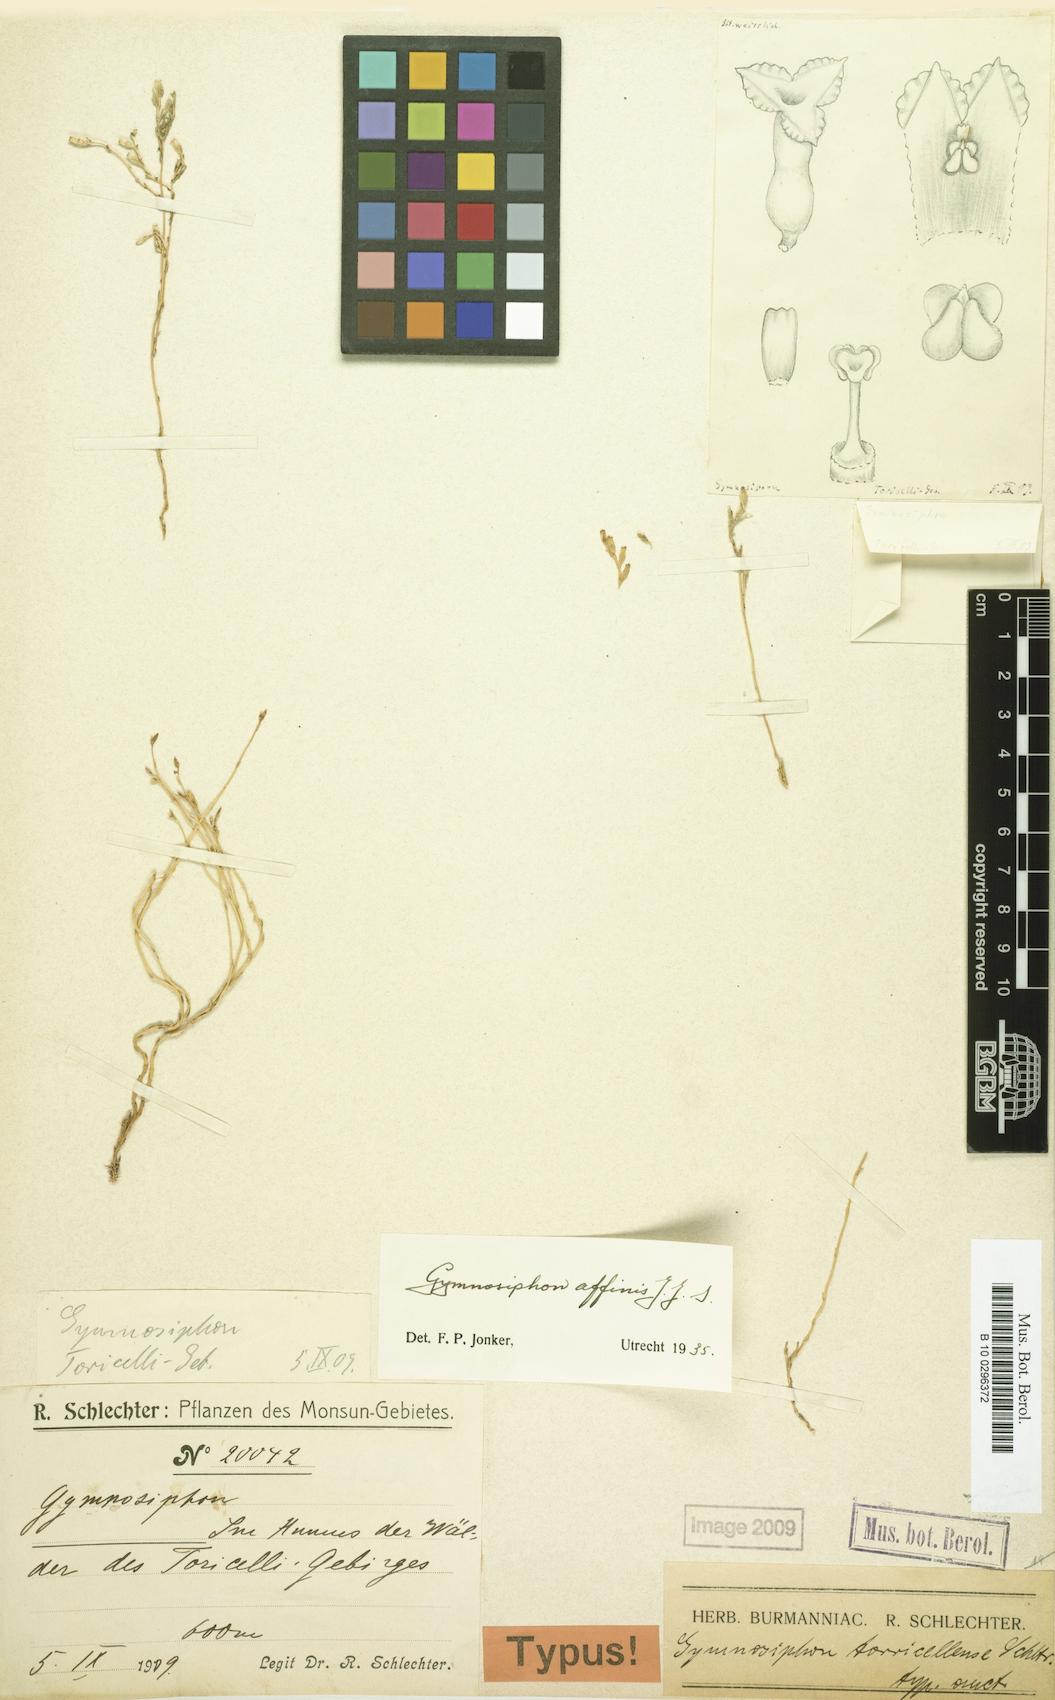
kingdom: Plantae
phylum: Tracheophyta
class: Liliopsida
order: Dioscoreales
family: Burmanniaceae
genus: Gymnosiphon
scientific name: Gymnosiphon affinis
